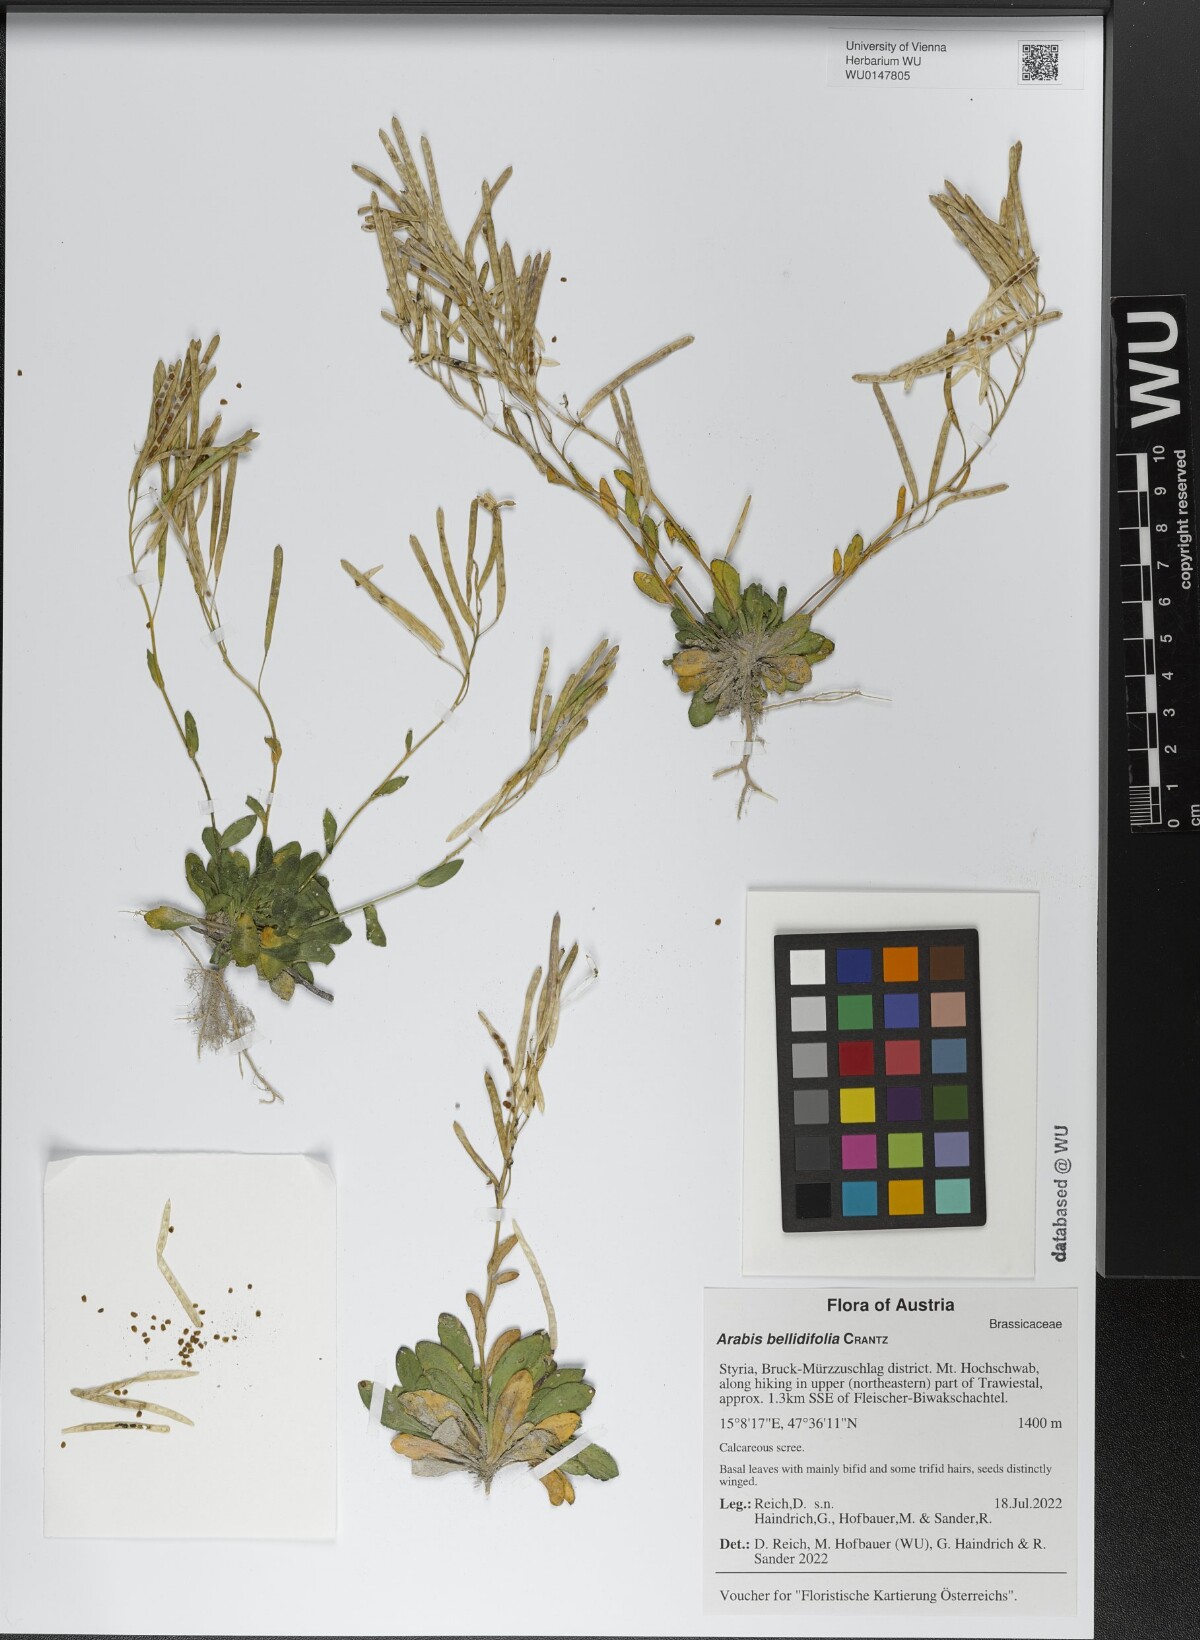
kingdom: Plantae
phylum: Tracheophyta
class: Magnoliopsida
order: Brassicales
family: Brassicaceae
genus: Arabis
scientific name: Arabis pumila
